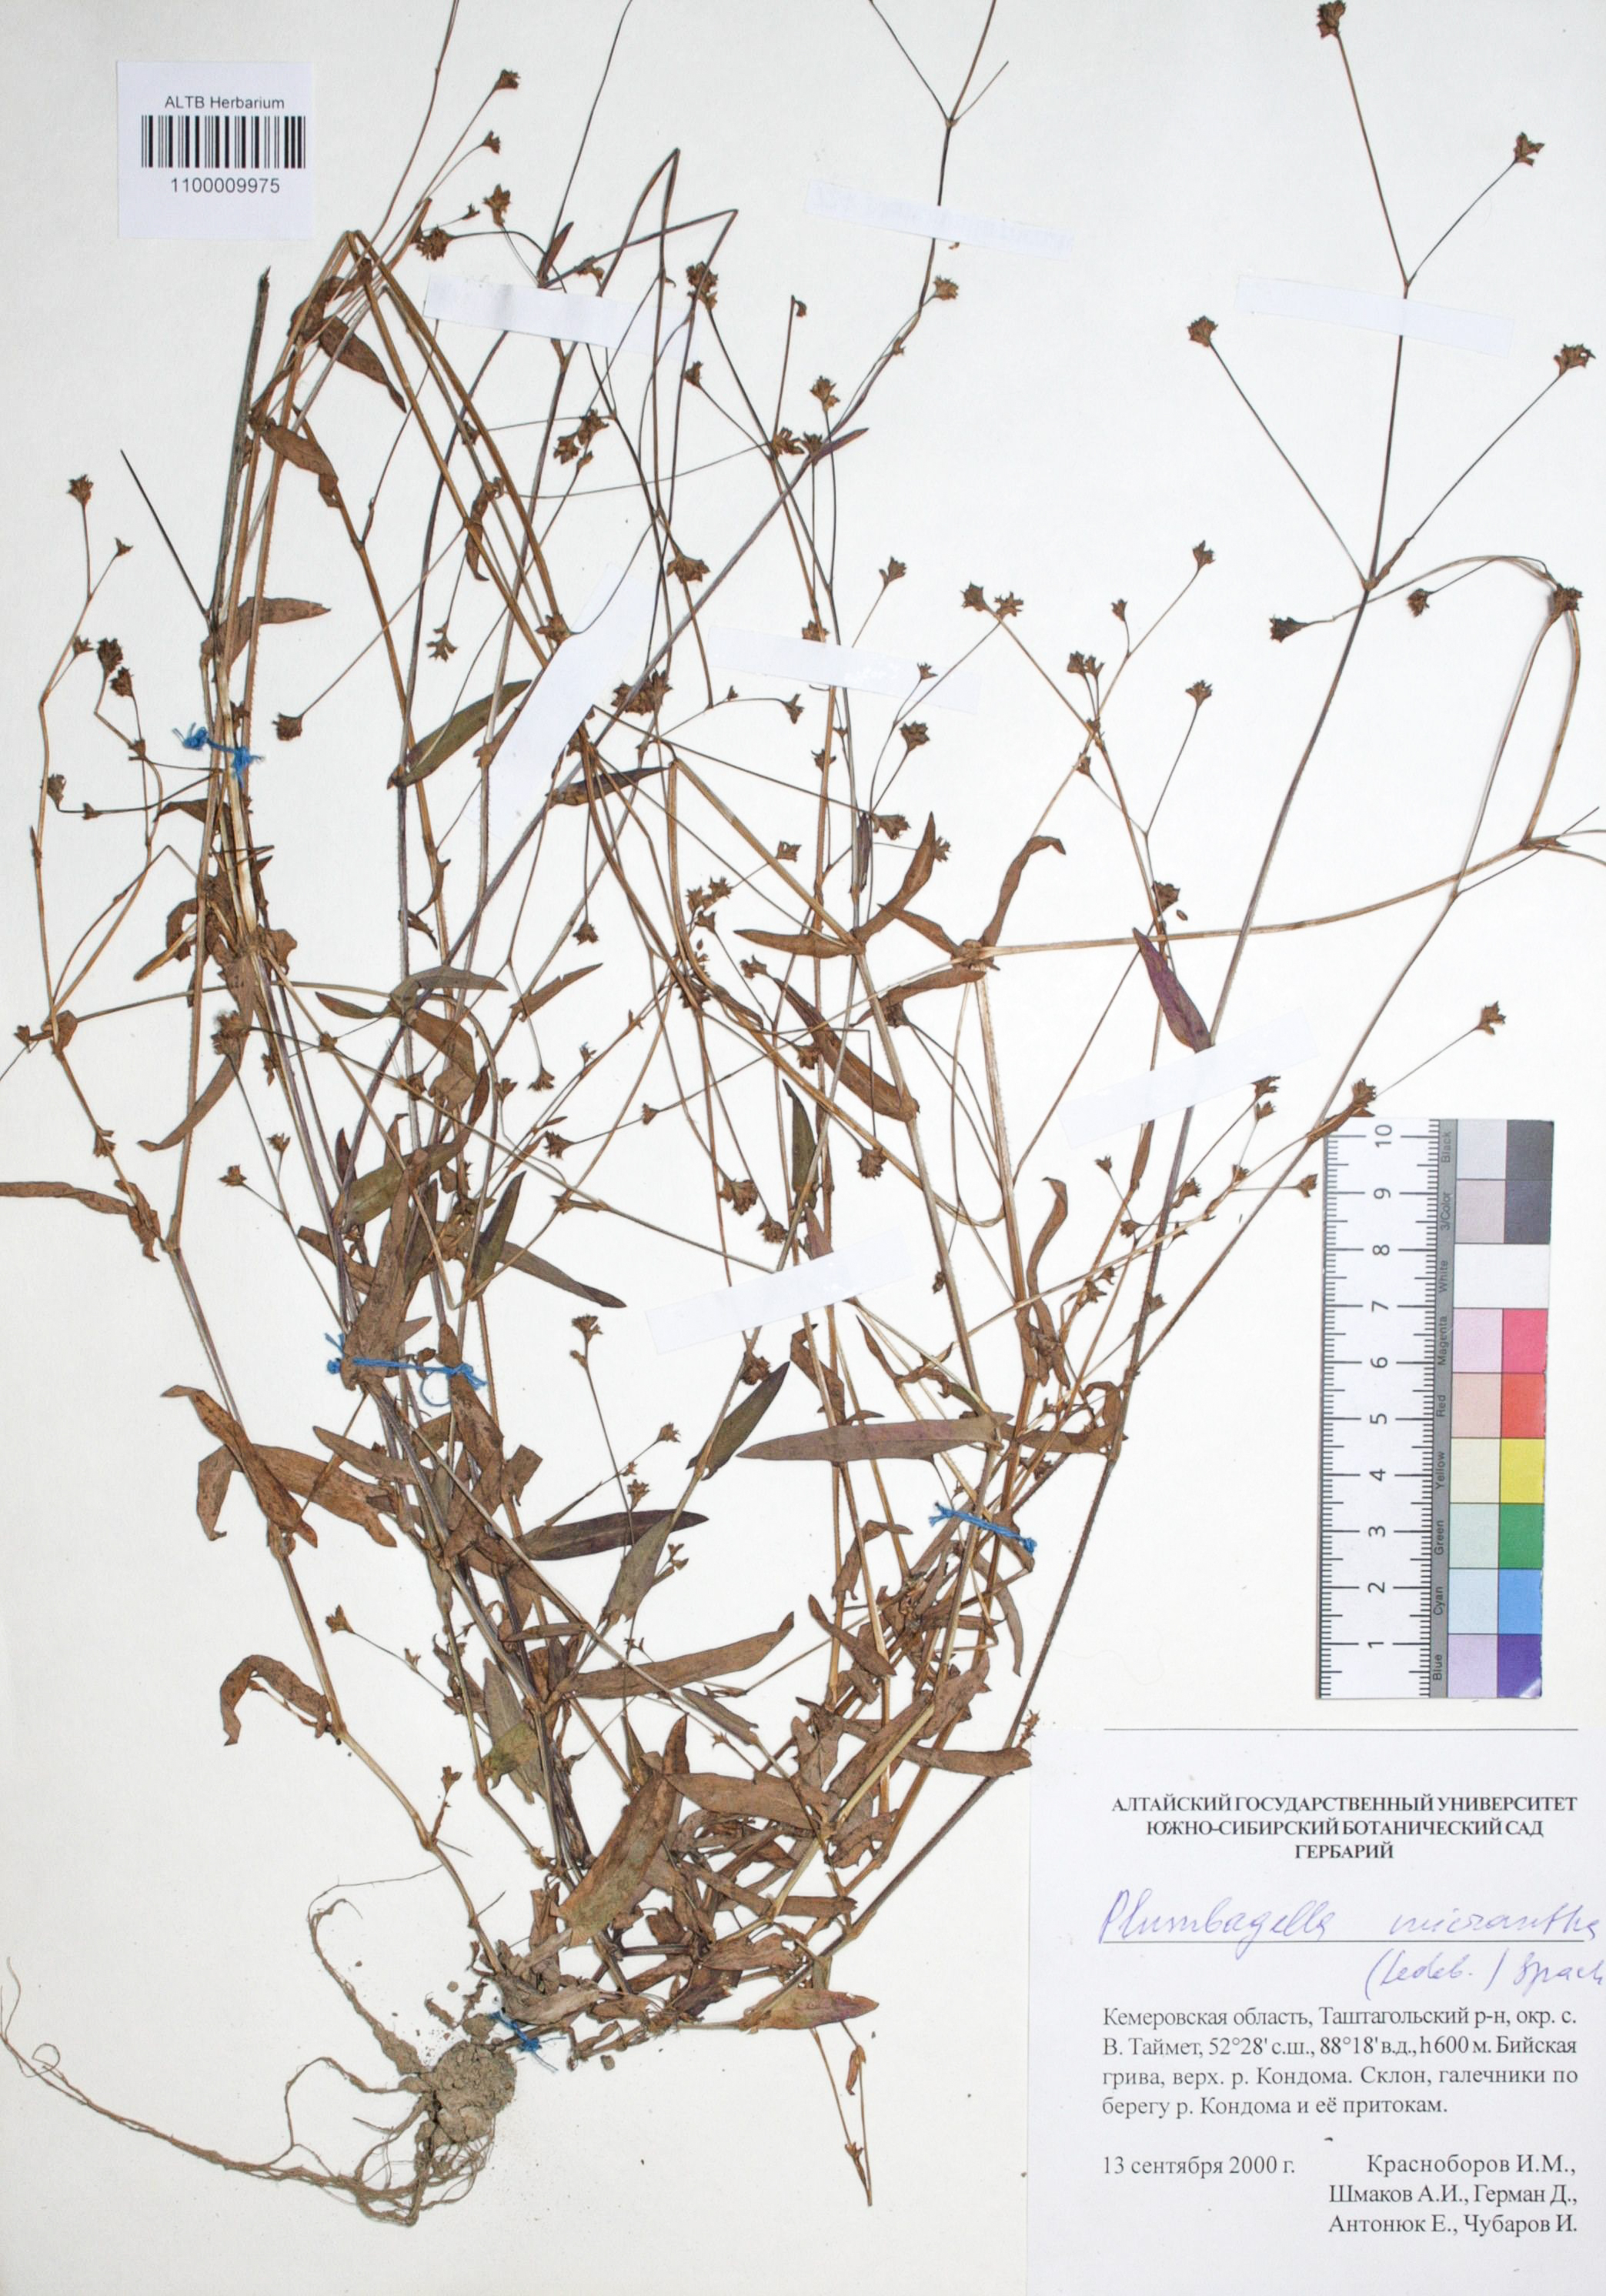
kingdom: Plantae
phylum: Tracheophyta
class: Magnoliopsida
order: Caryophyllales
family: Plumbaginaceae
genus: Plumbagella
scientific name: Plumbagella micrantha
